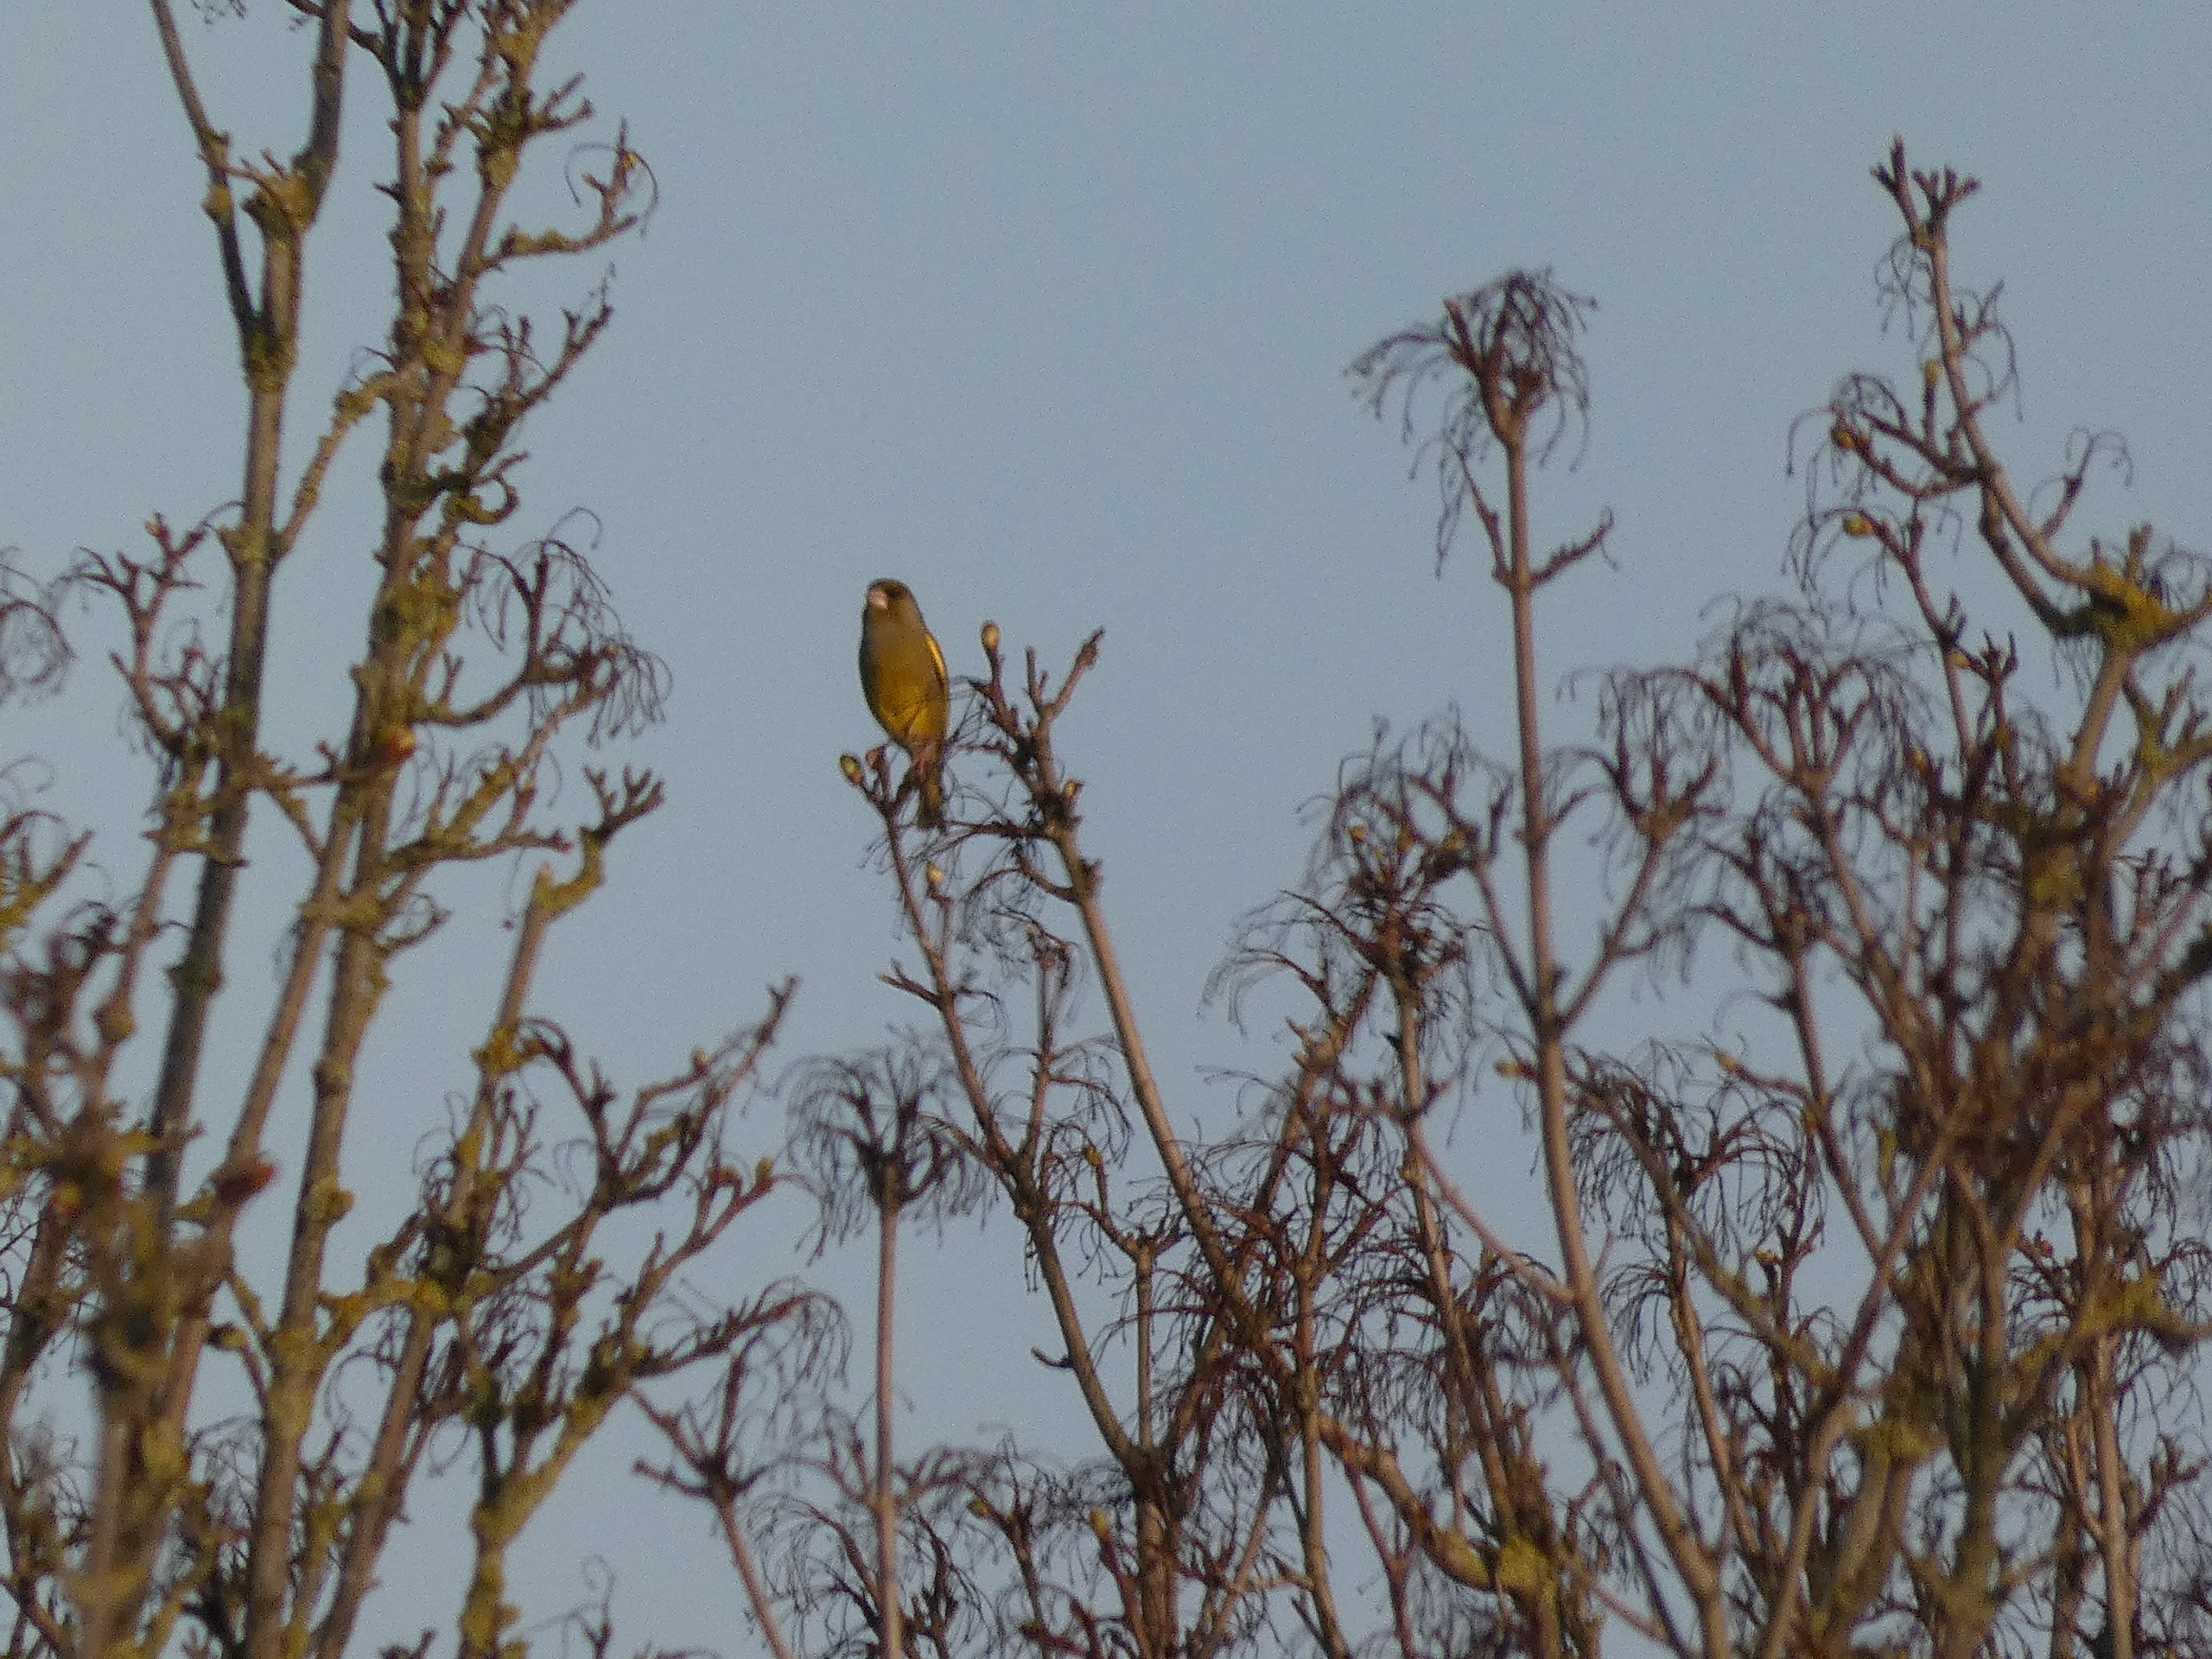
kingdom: Plantae
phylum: Tracheophyta
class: Liliopsida
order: Poales
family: Poaceae
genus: Chloris
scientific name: Chloris chloris
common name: Grønirisk
